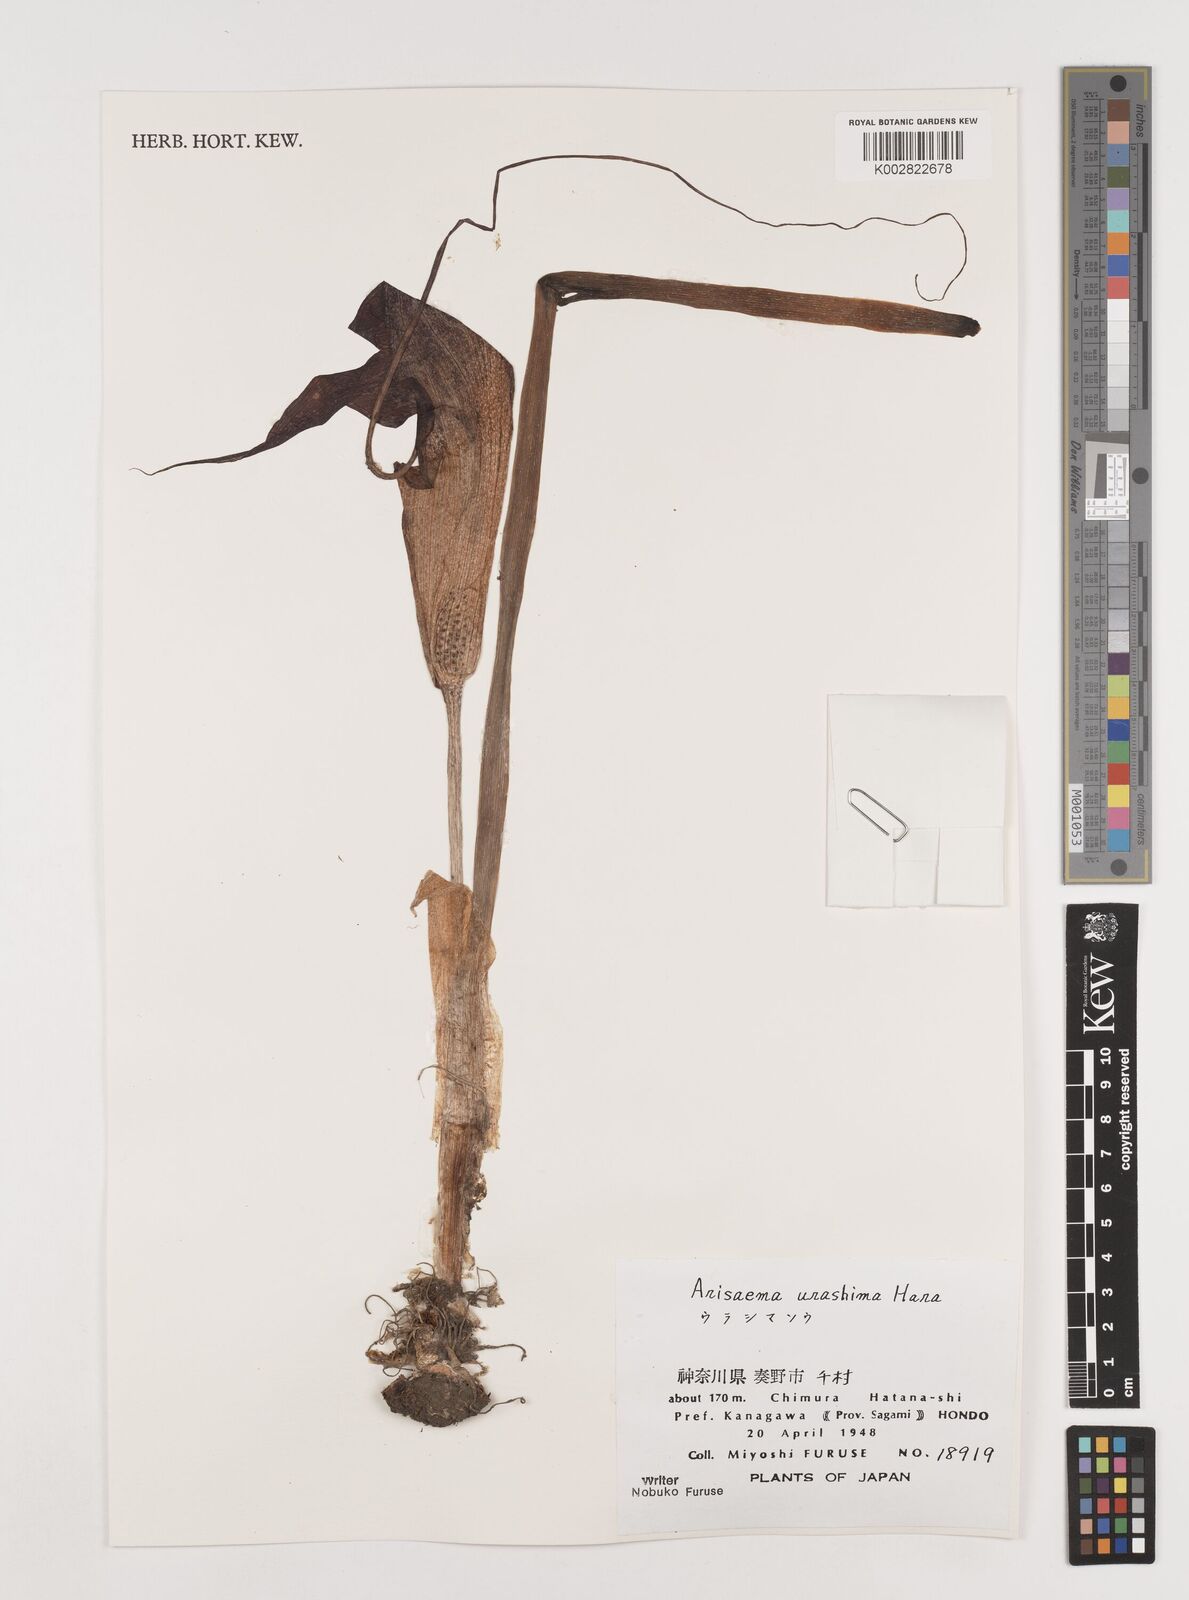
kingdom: Plantae
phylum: Tracheophyta
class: Liliopsida
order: Alismatales
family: Araceae
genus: Arisaema
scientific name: Arisaema
